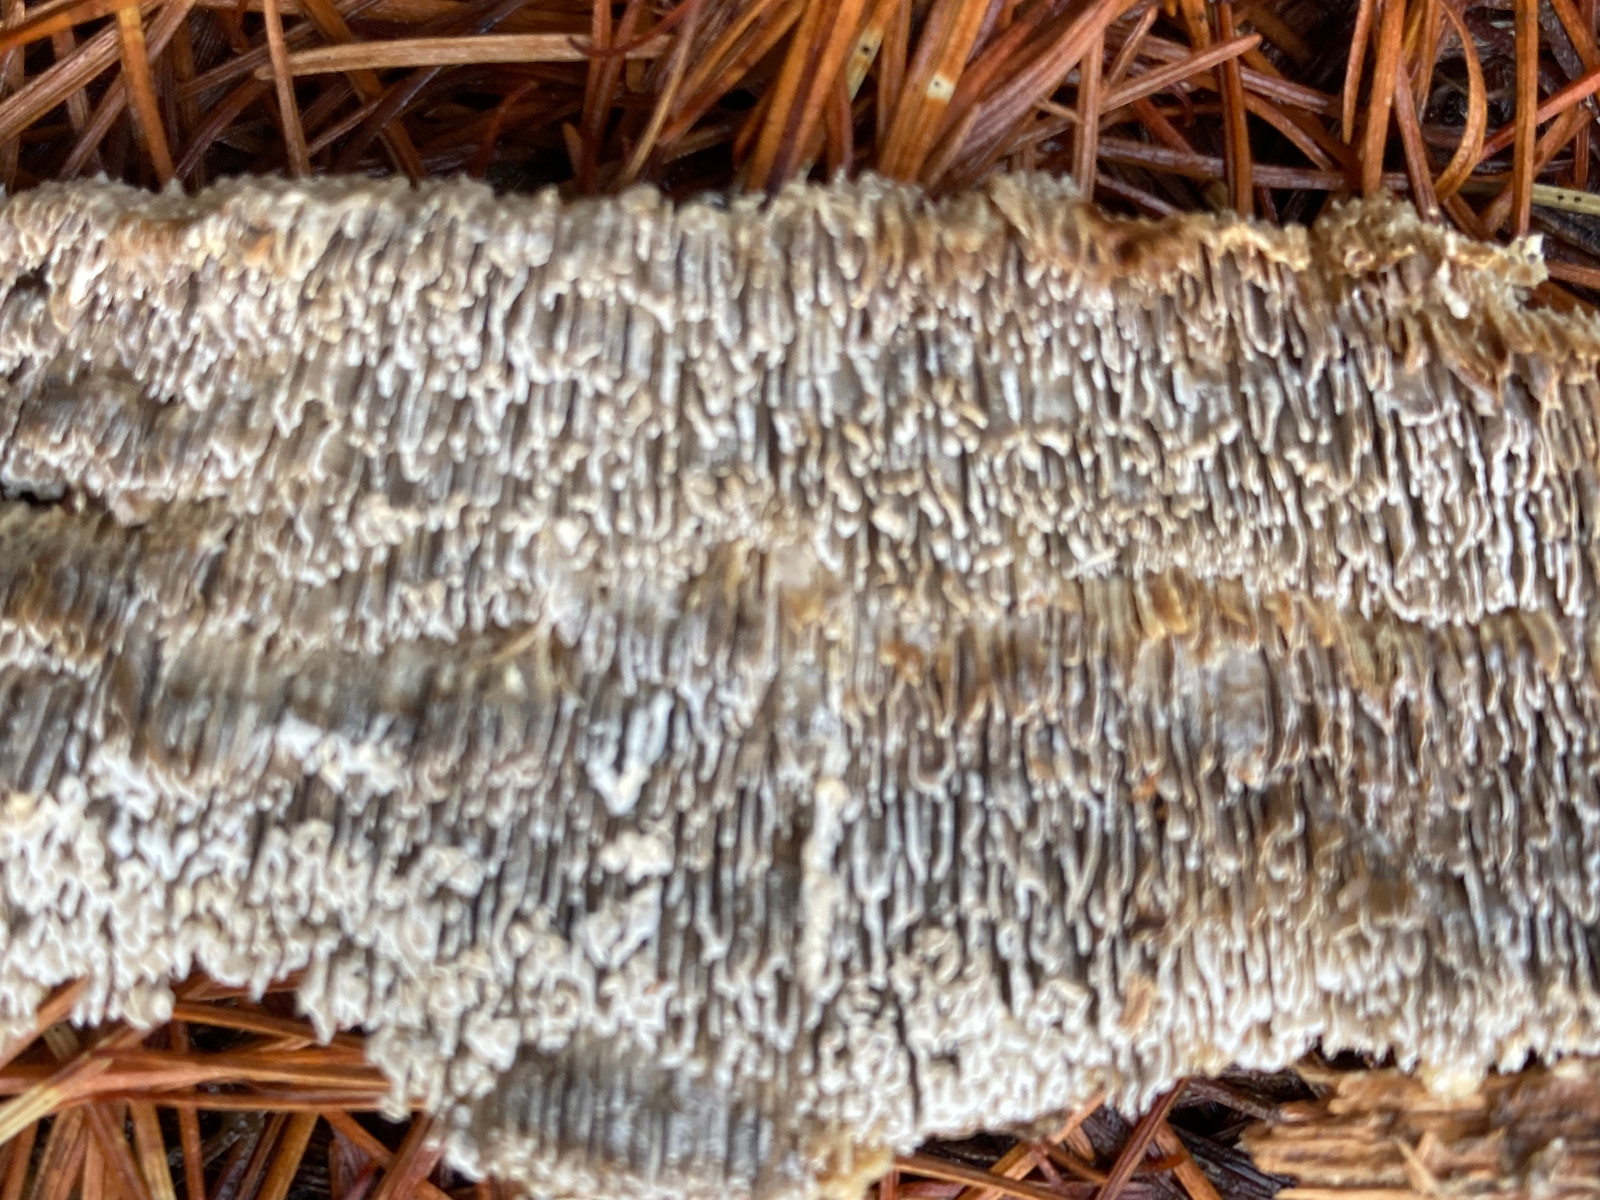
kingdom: Fungi
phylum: Basidiomycota
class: Agaricomycetes
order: Polyporales
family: Fomitopsidaceae
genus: Antrodia
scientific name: Antrodia sinuosa
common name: tømmer-sejporesvamp
